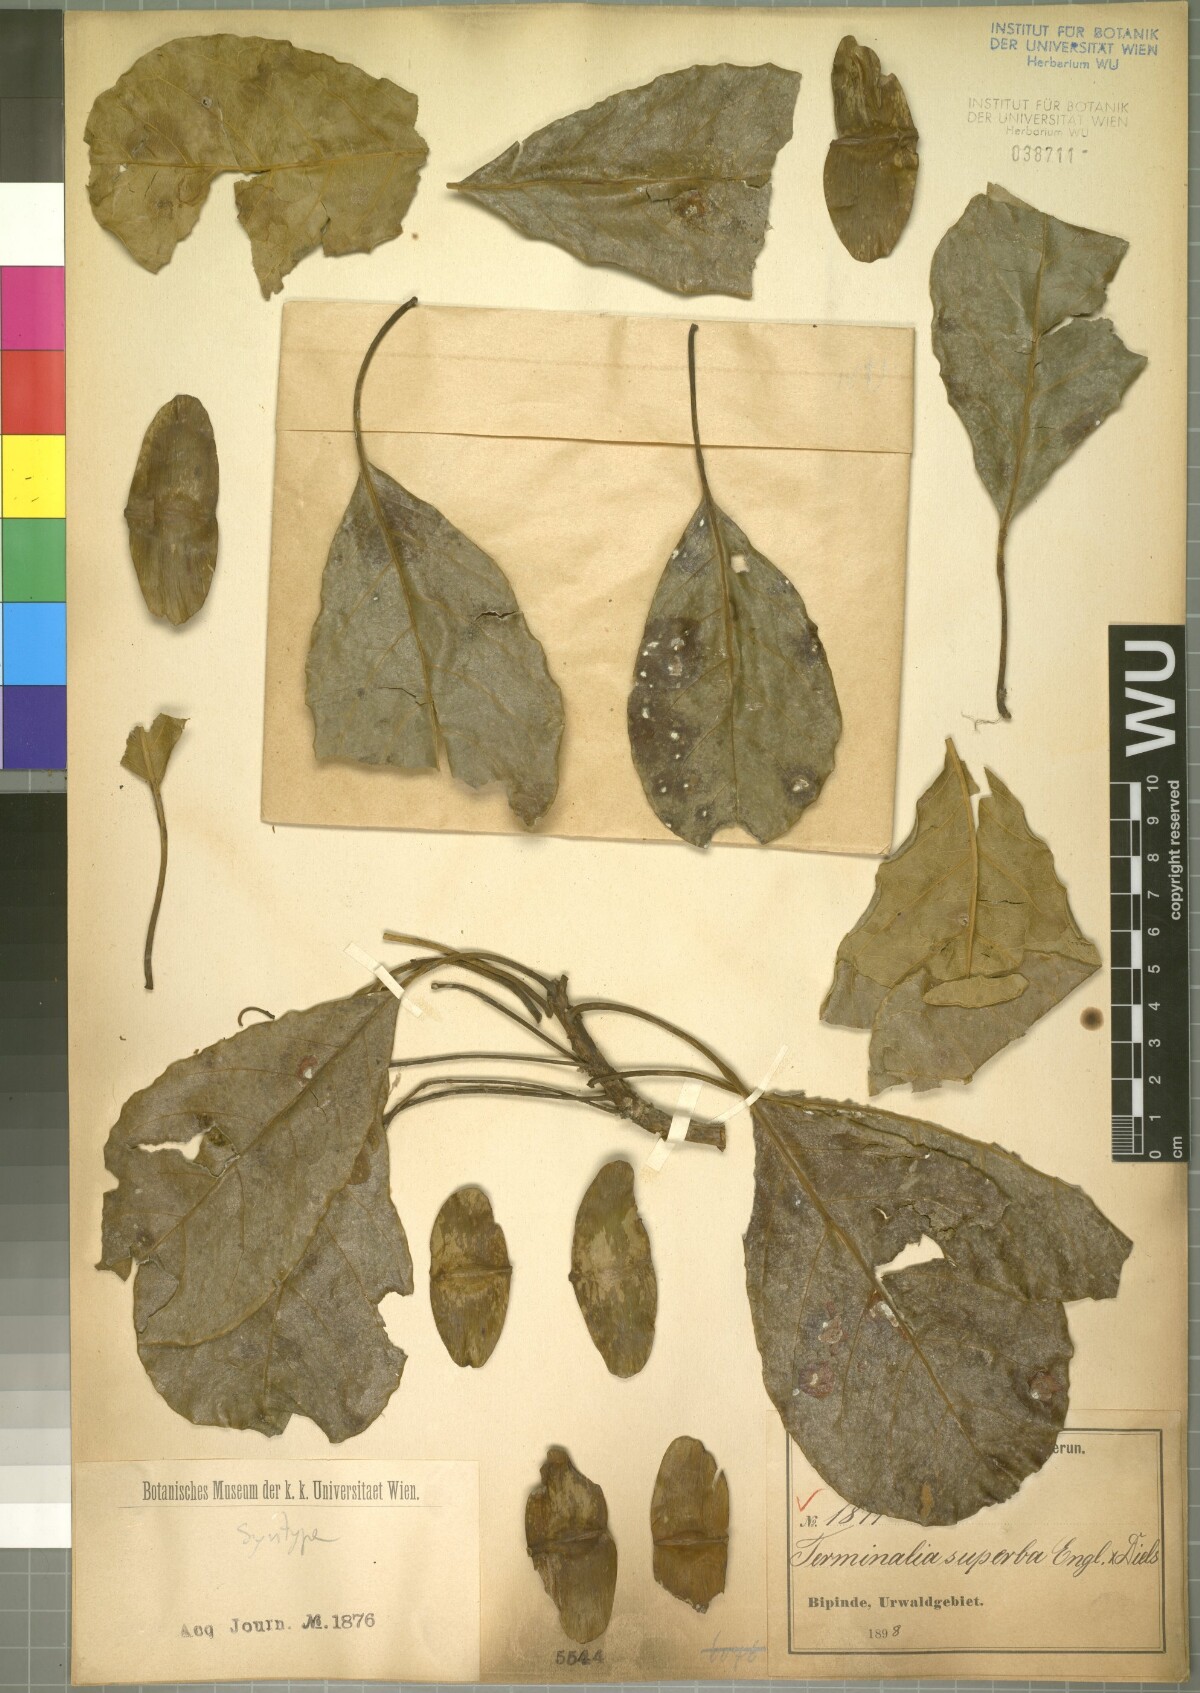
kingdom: Plantae
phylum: Tracheophyta
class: Magnoliopsida
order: Myrtales
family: Combretaceae
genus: Terminalia
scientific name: Terminalia superba
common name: White afara
